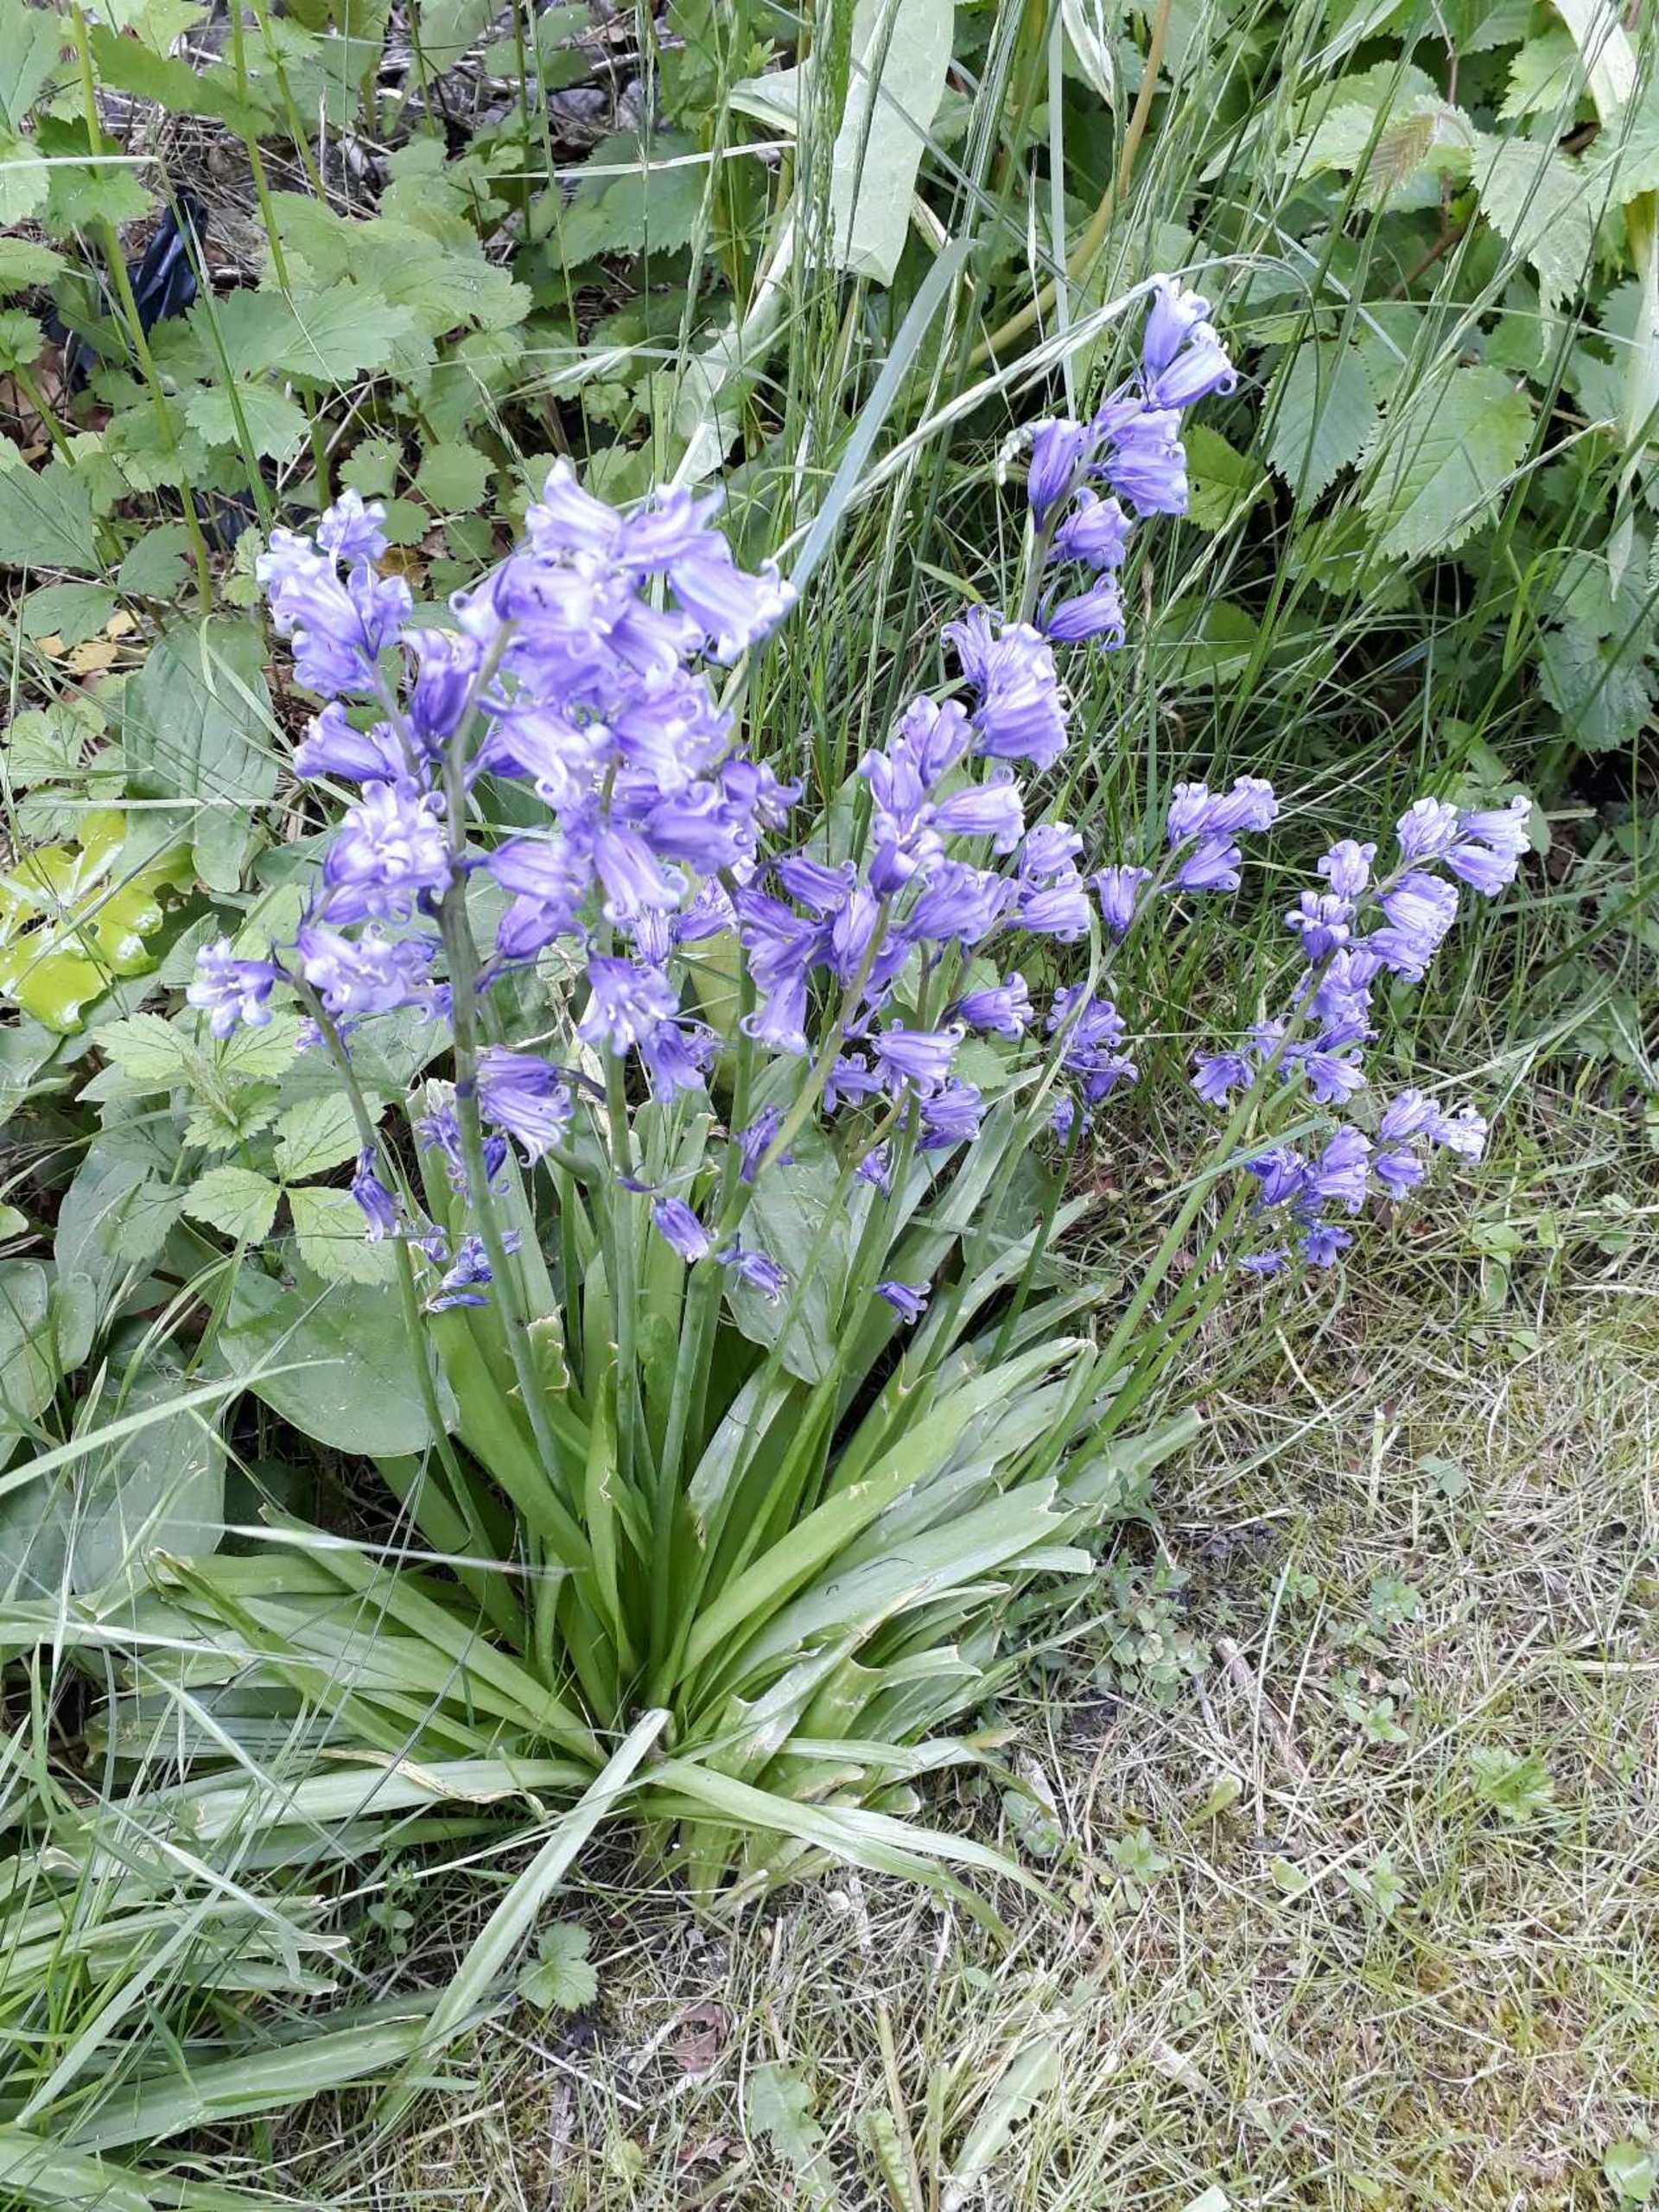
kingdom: Plantae
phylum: Tracheophyta
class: Liliopsida
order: Asparagales
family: Asparagaceae
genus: Hyacinthoides
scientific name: Hyacinthoides massartiana
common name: Hybrid-klokkeskilla
